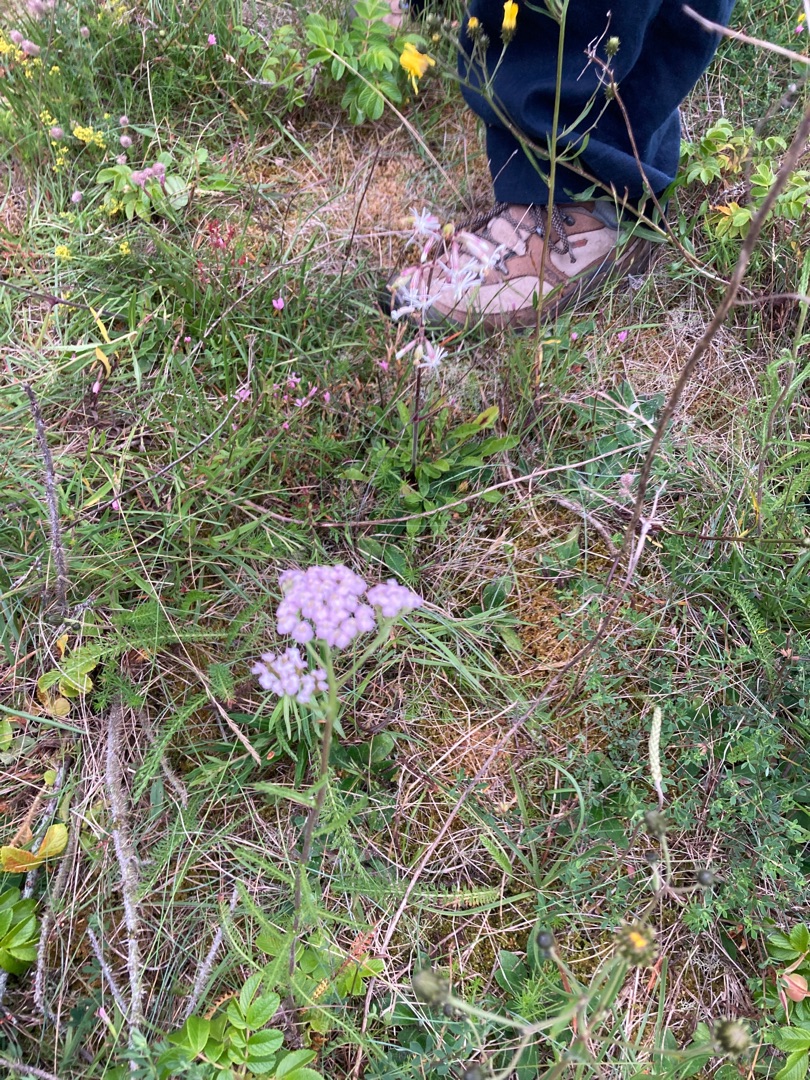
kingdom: Plantae
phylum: Tracheophyta
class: Magnoliopsida
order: Asterales
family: Asteraceae
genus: Achillea
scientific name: Achillea millefolium
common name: Almindelig røllike
